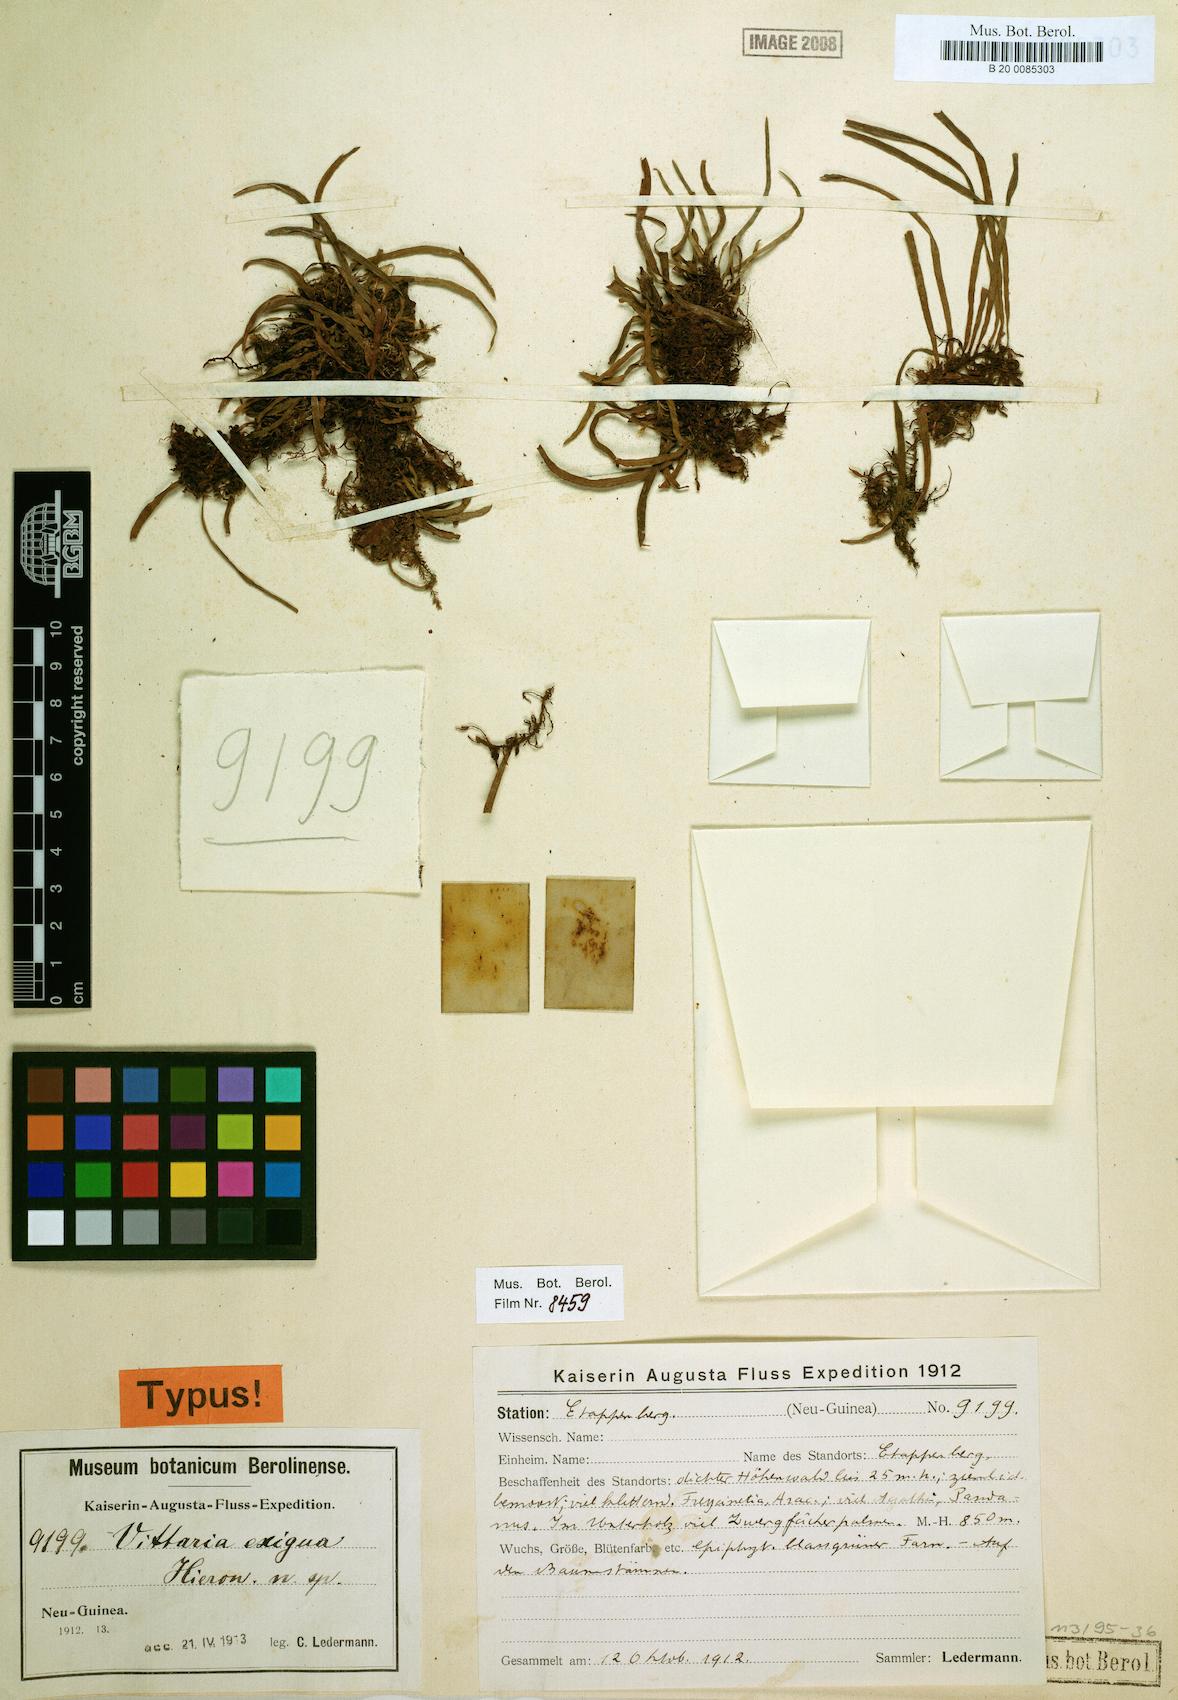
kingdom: Plantae
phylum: Tracheophyta
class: Polypodiopsida
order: Polypodiales
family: Pteridaceae
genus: Haplopteris
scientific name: Haplopteris exigua
